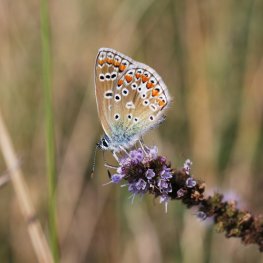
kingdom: Animalia
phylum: Arthropoda
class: Insecta
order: Lepidoptera
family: Lycaenidae
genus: Polyommatus
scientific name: Polyommatus icarus
